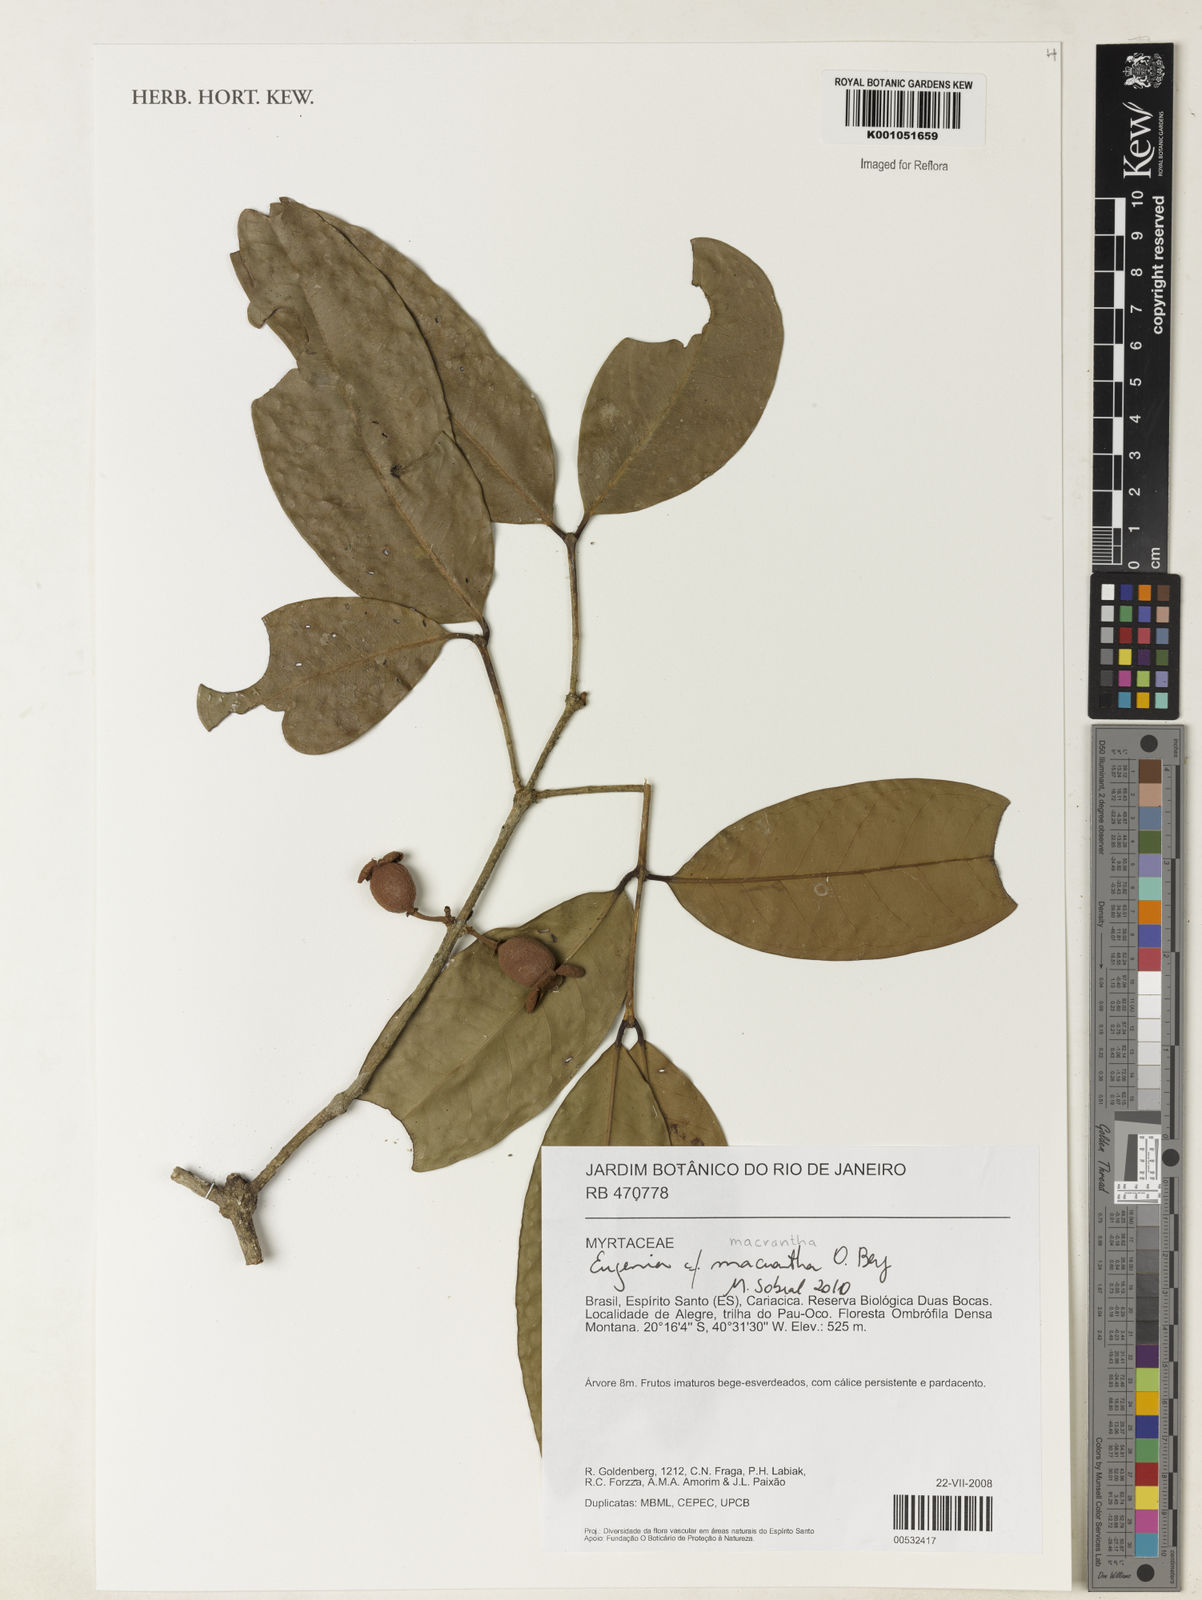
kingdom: Plantae
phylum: Tracheophyta
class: Magnoliopsida
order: Myrtales
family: Myrtaceae
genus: Eugenia
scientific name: Eugenia macrantha
